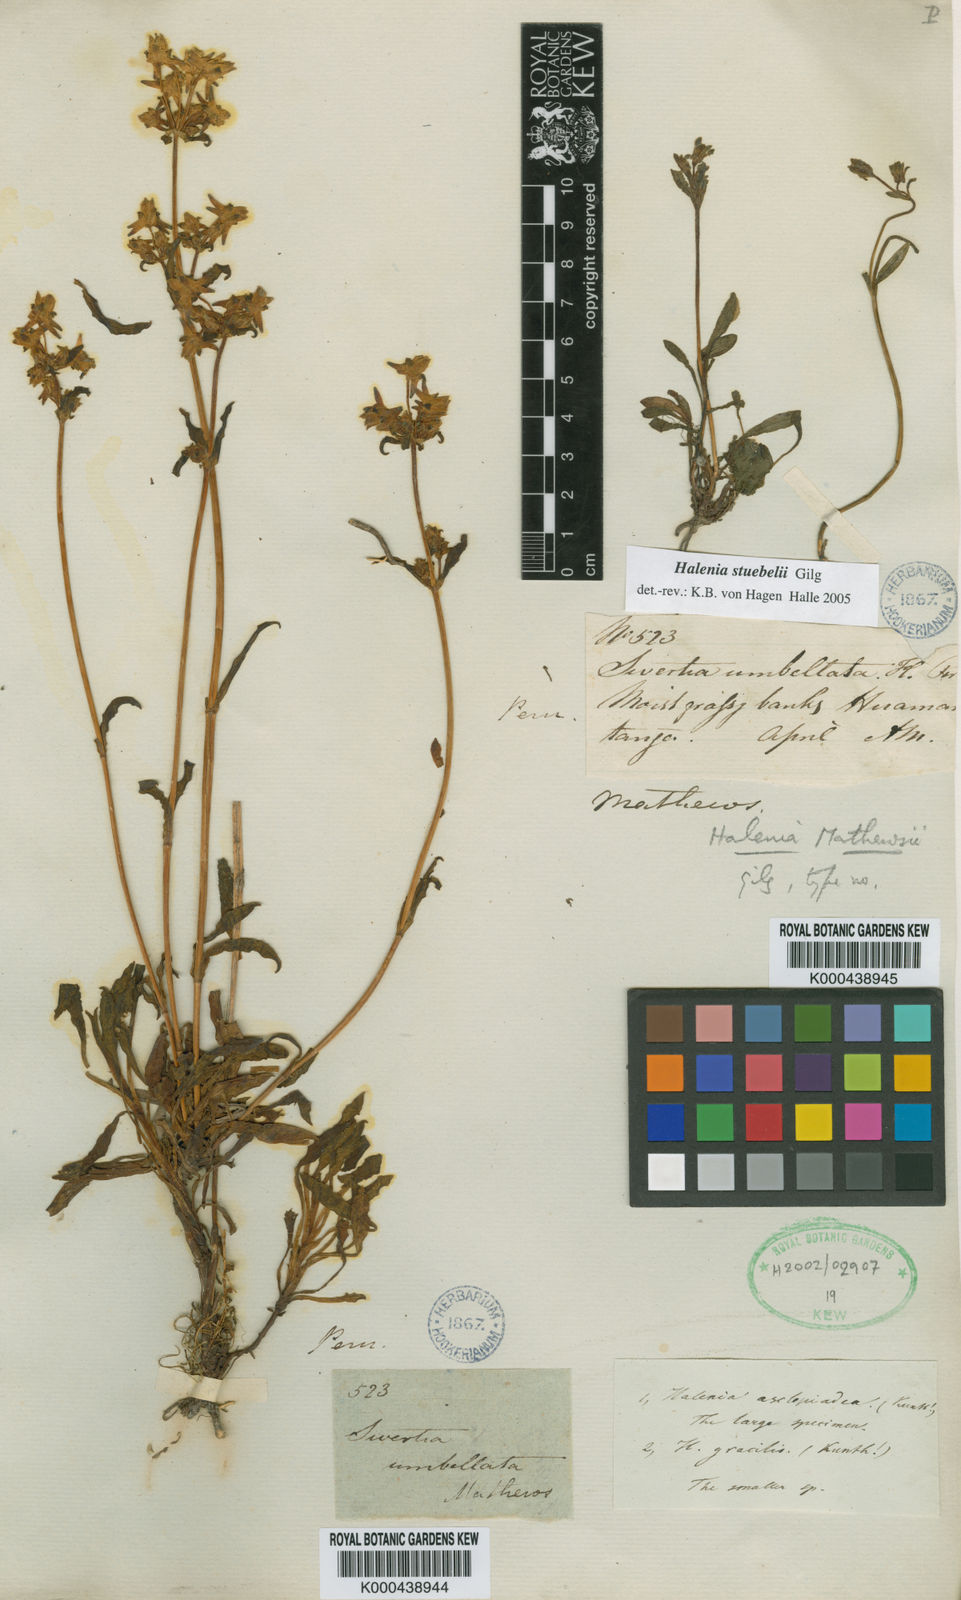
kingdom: Plantae
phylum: Tracheophyta
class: Magnoliopsida
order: Gentianales
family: Gentianaceae
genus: Halenia
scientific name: Halenia stuebelii
